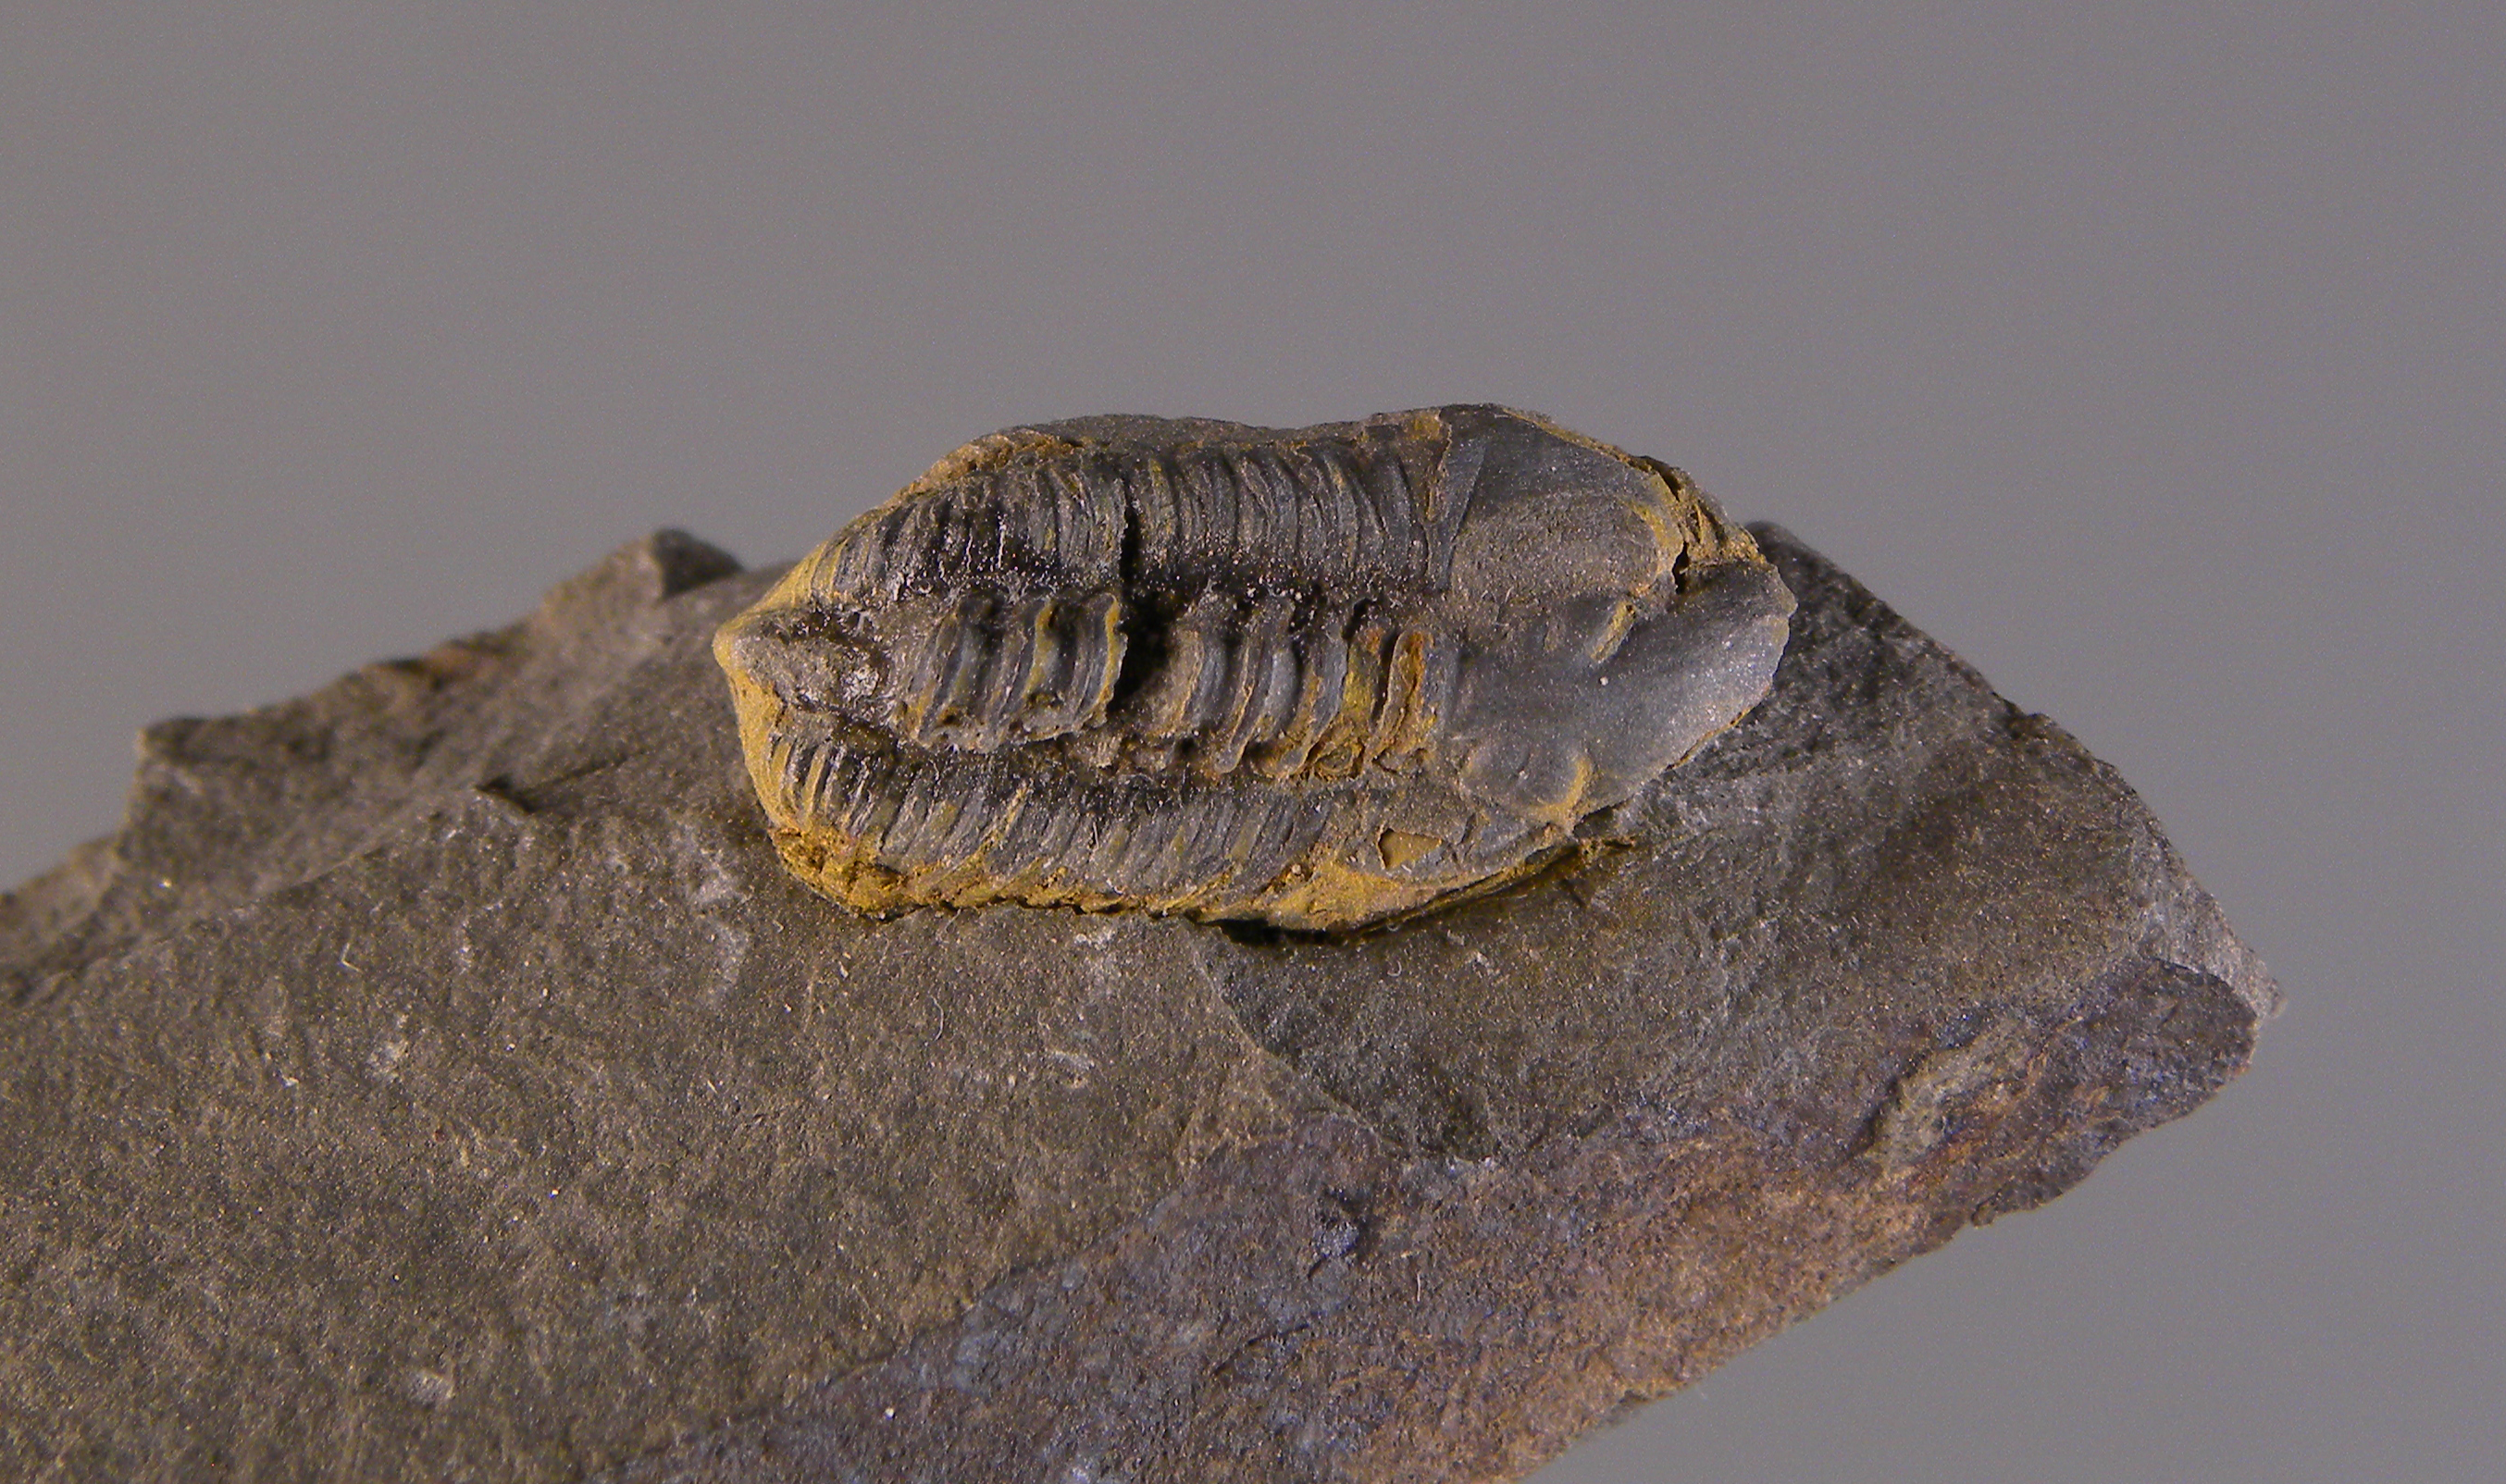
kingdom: Animalia
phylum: Arthropoda
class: Trilobita
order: Phacopida
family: Acastidae
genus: Acastava
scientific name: Acastava
